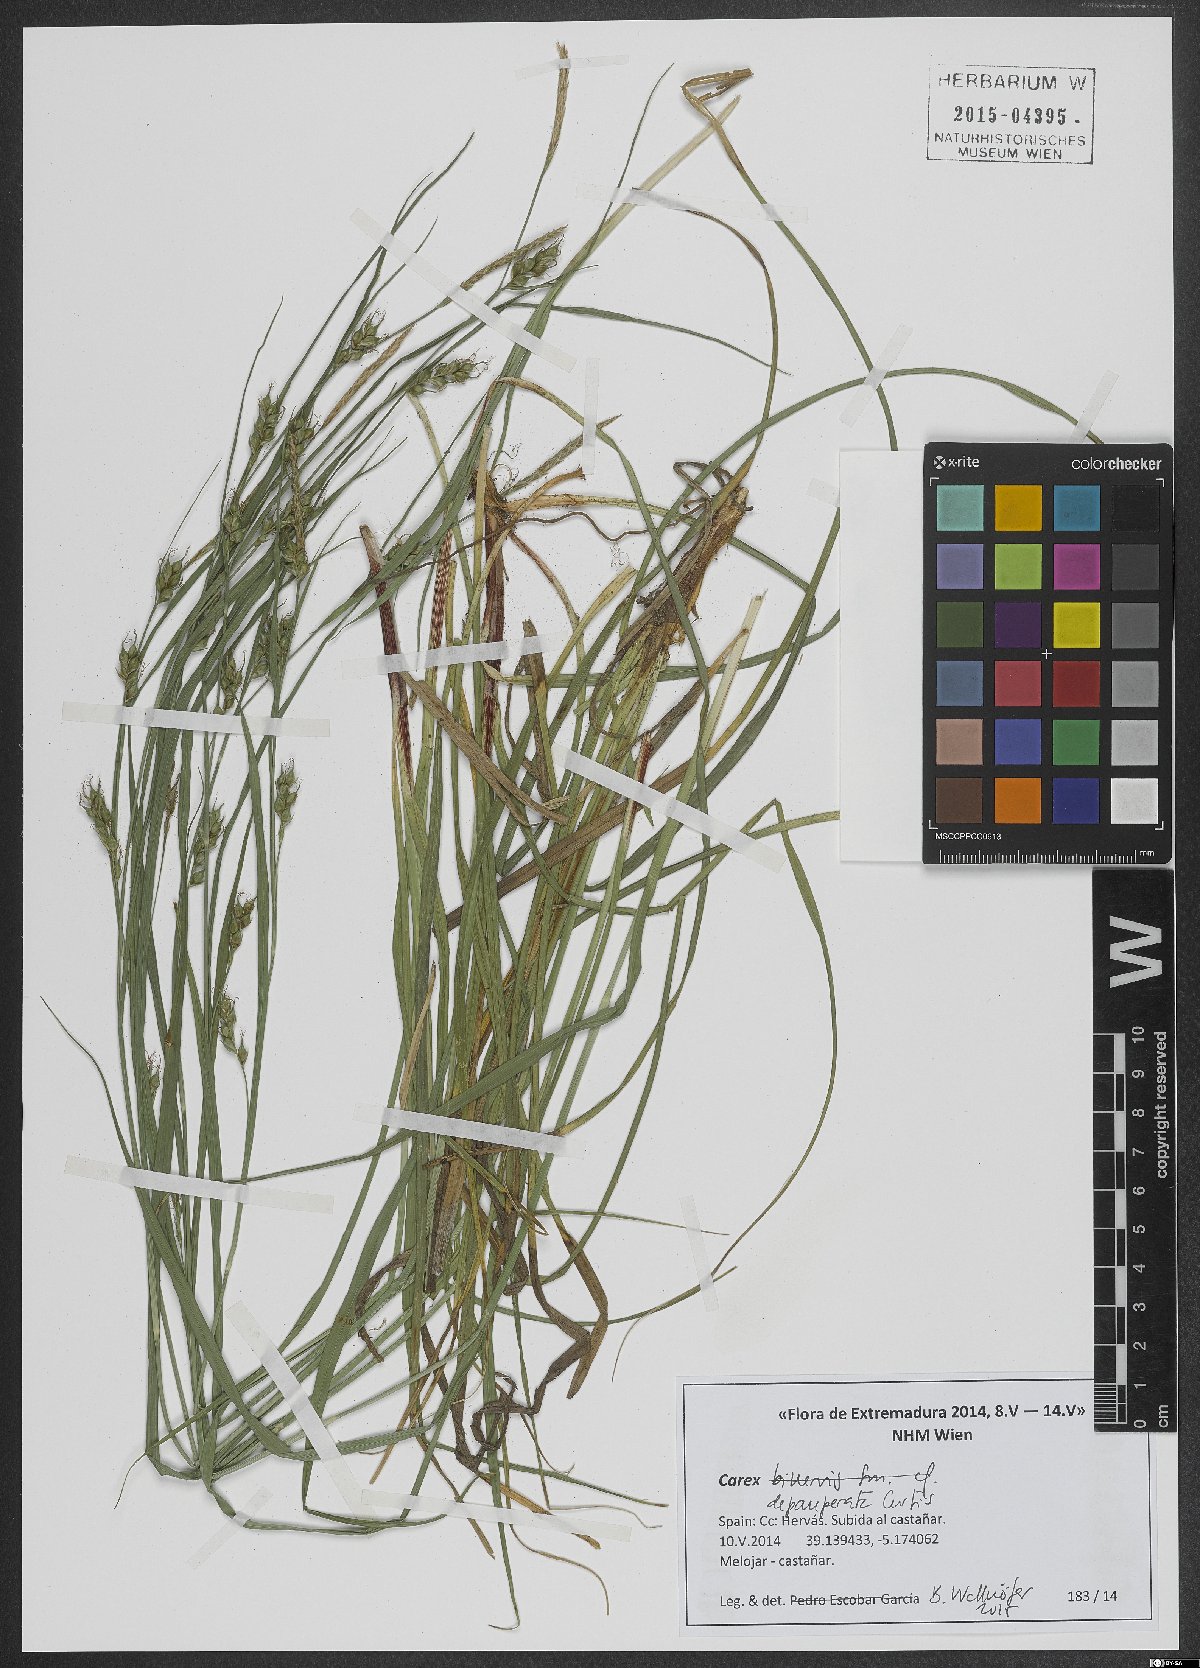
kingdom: Plantae
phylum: Tracheophyta
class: Liliopsida
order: Poales
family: Cyperaceae
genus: Carex
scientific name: Carex depauperata
